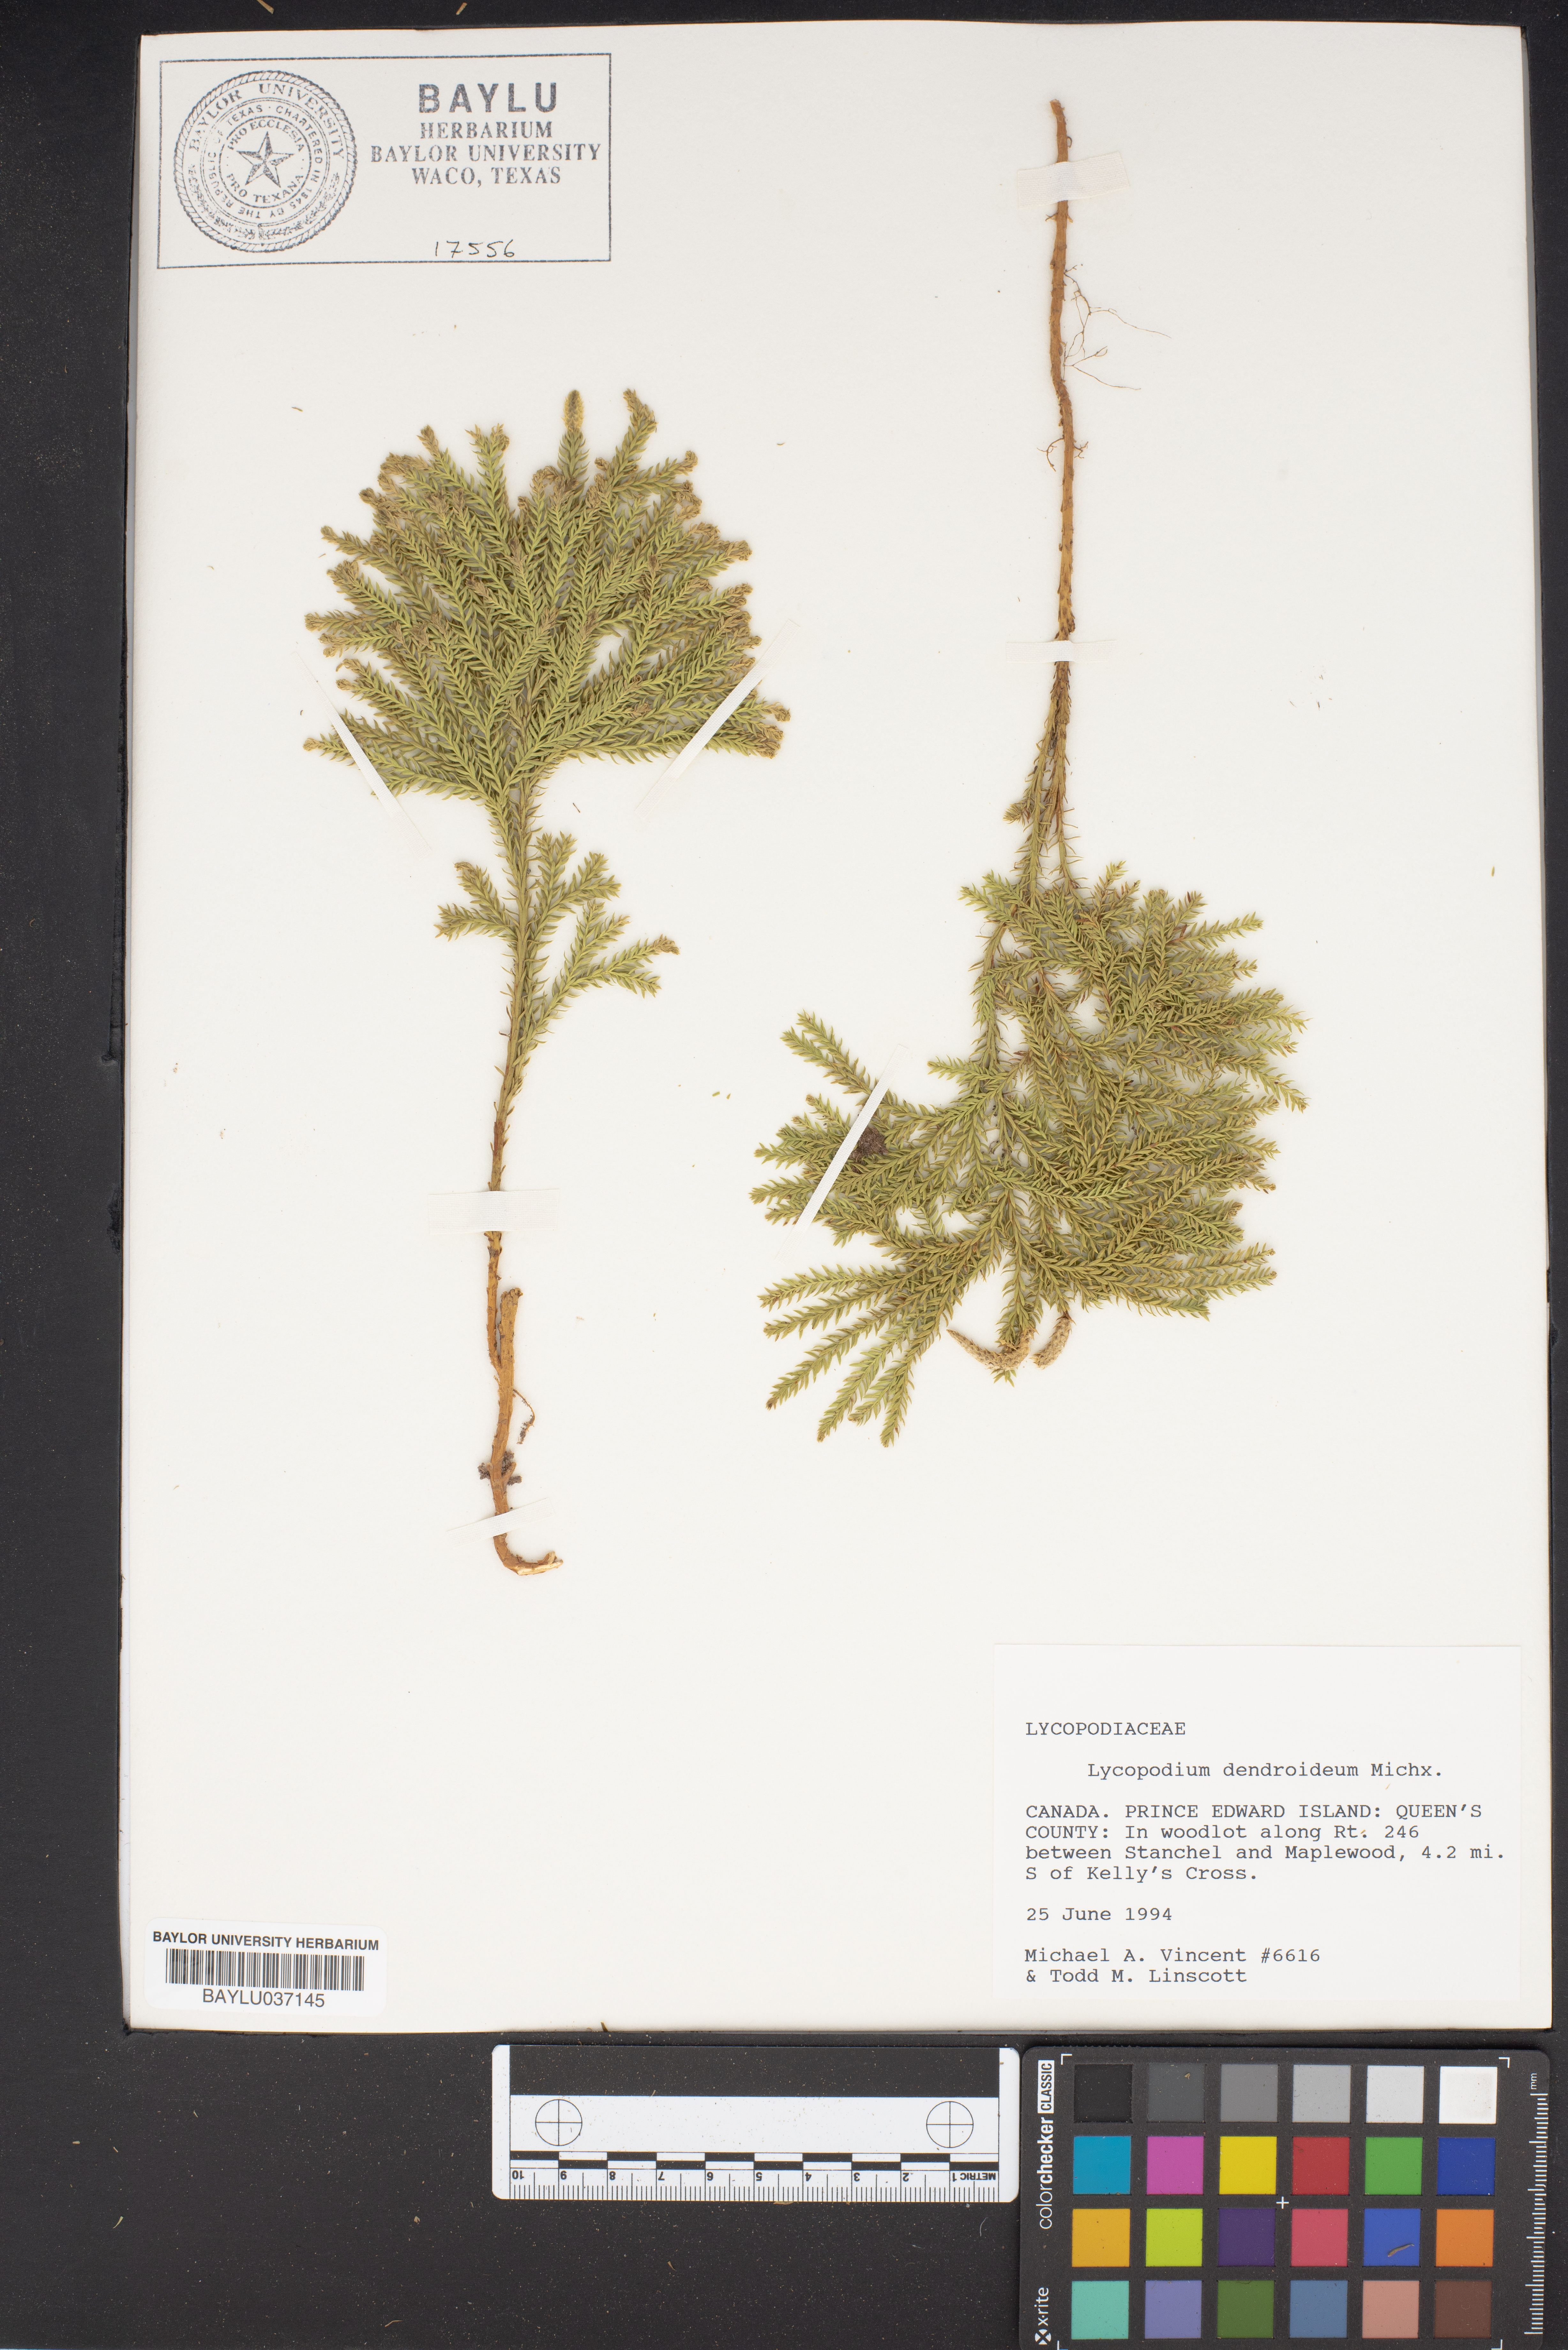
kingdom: Plantae
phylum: Tracheophyta
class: Lycopodiopsida
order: Lycopodiales
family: Lycopodiaceae
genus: Dendrolycopodium
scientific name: Dendrolycopodium dendroideum
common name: Northern tree-clubmoss
